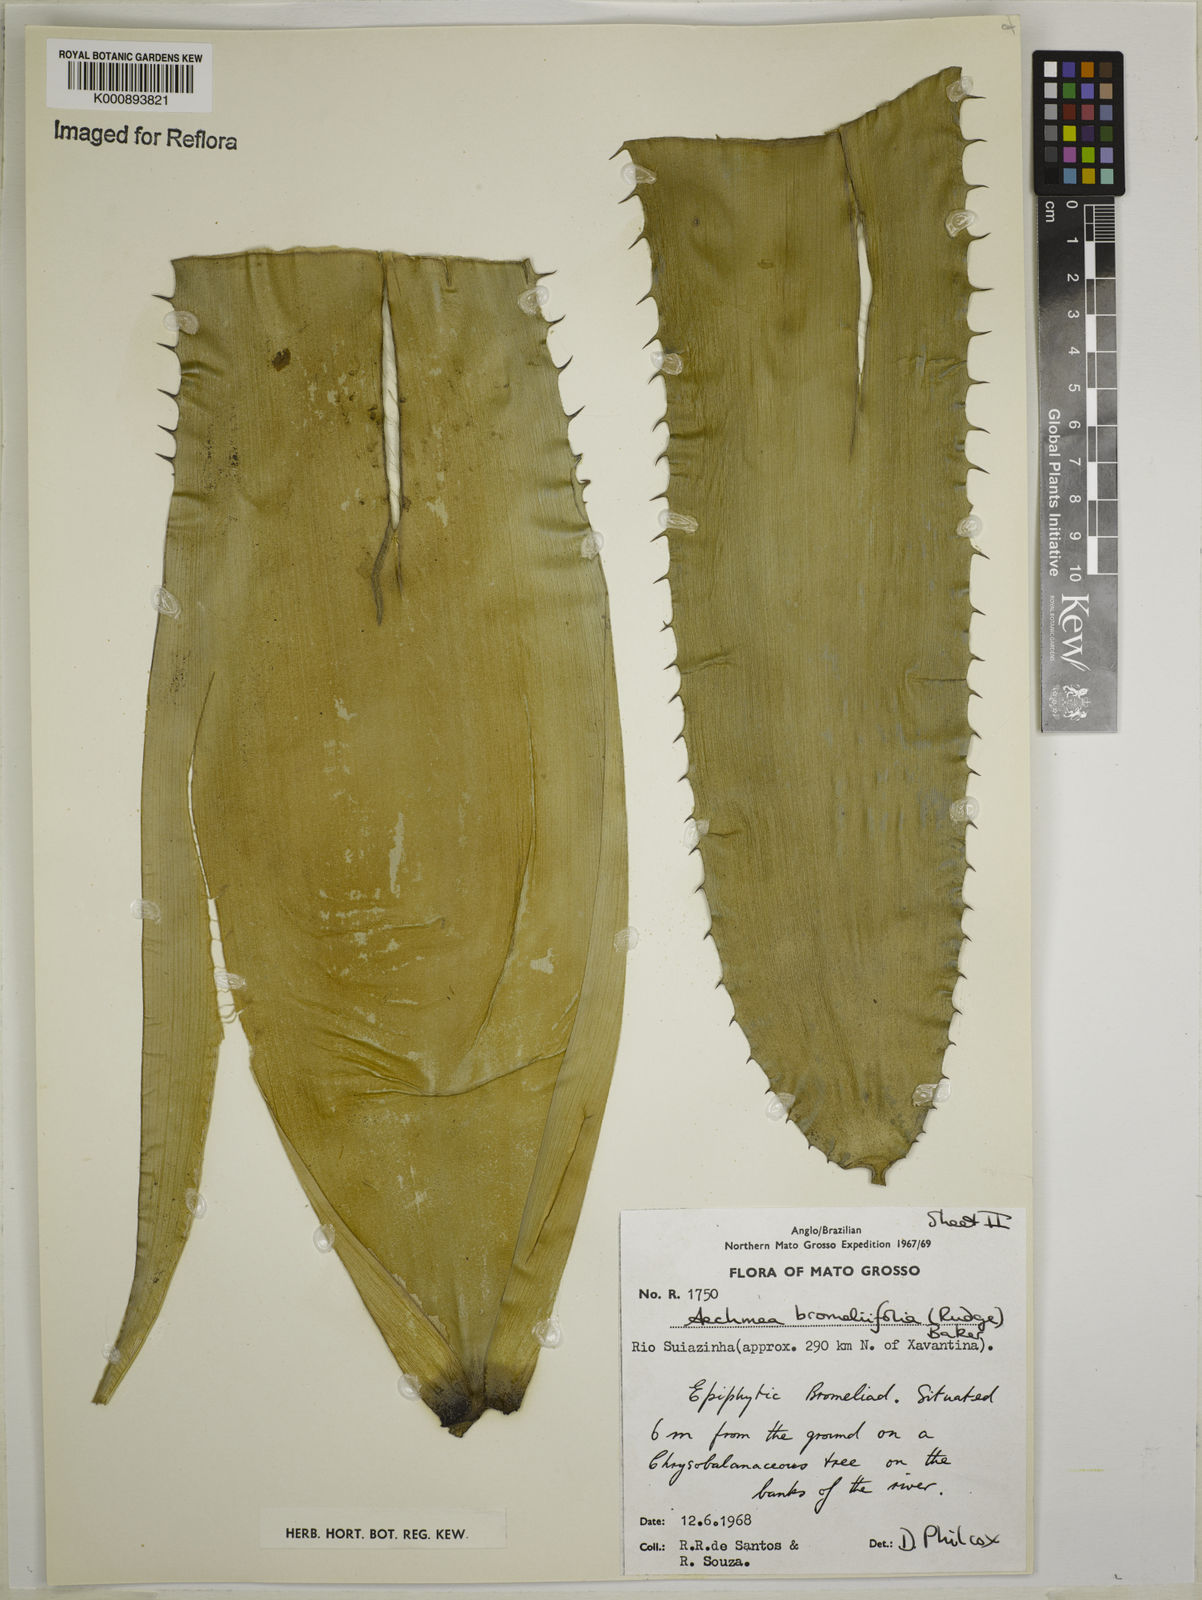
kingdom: Plantae
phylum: Tracheophyta
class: Liliopsida
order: Poales
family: Bromeliaceae
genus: Aechmea
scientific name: Aechmea
